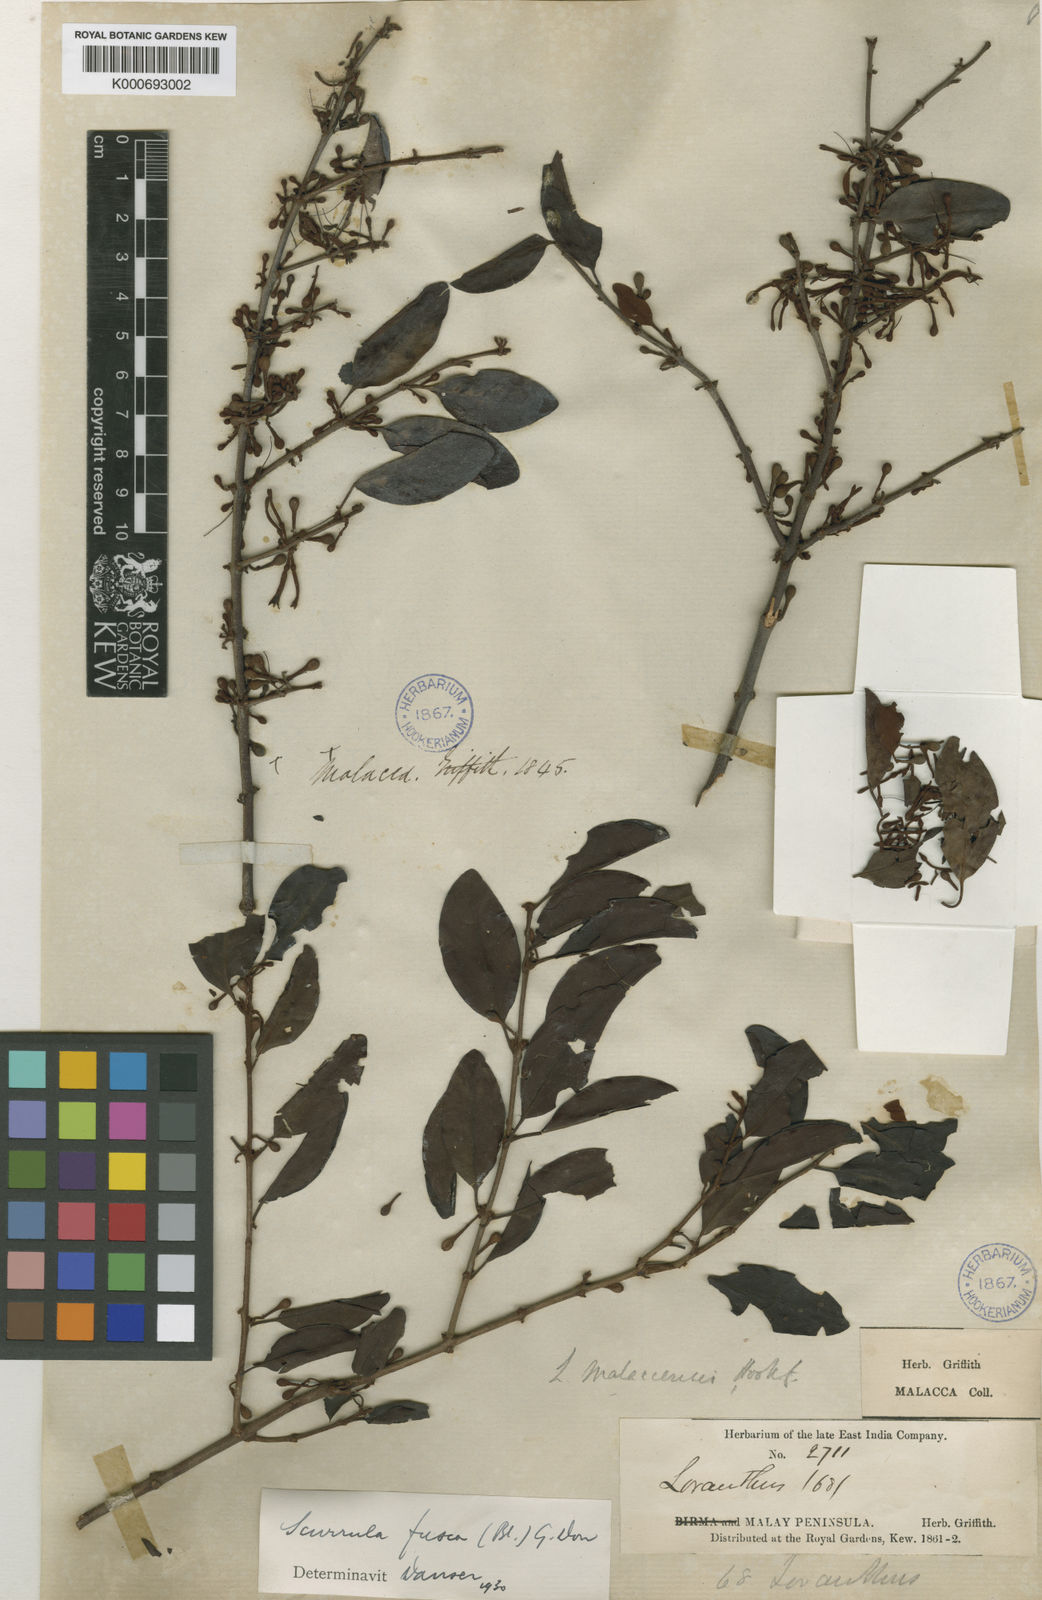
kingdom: Plantae
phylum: Tracheophyta
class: Magnoliopsida
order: Santalales
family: Loranthaceae
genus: Scurrula
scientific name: Scurrula fusca
